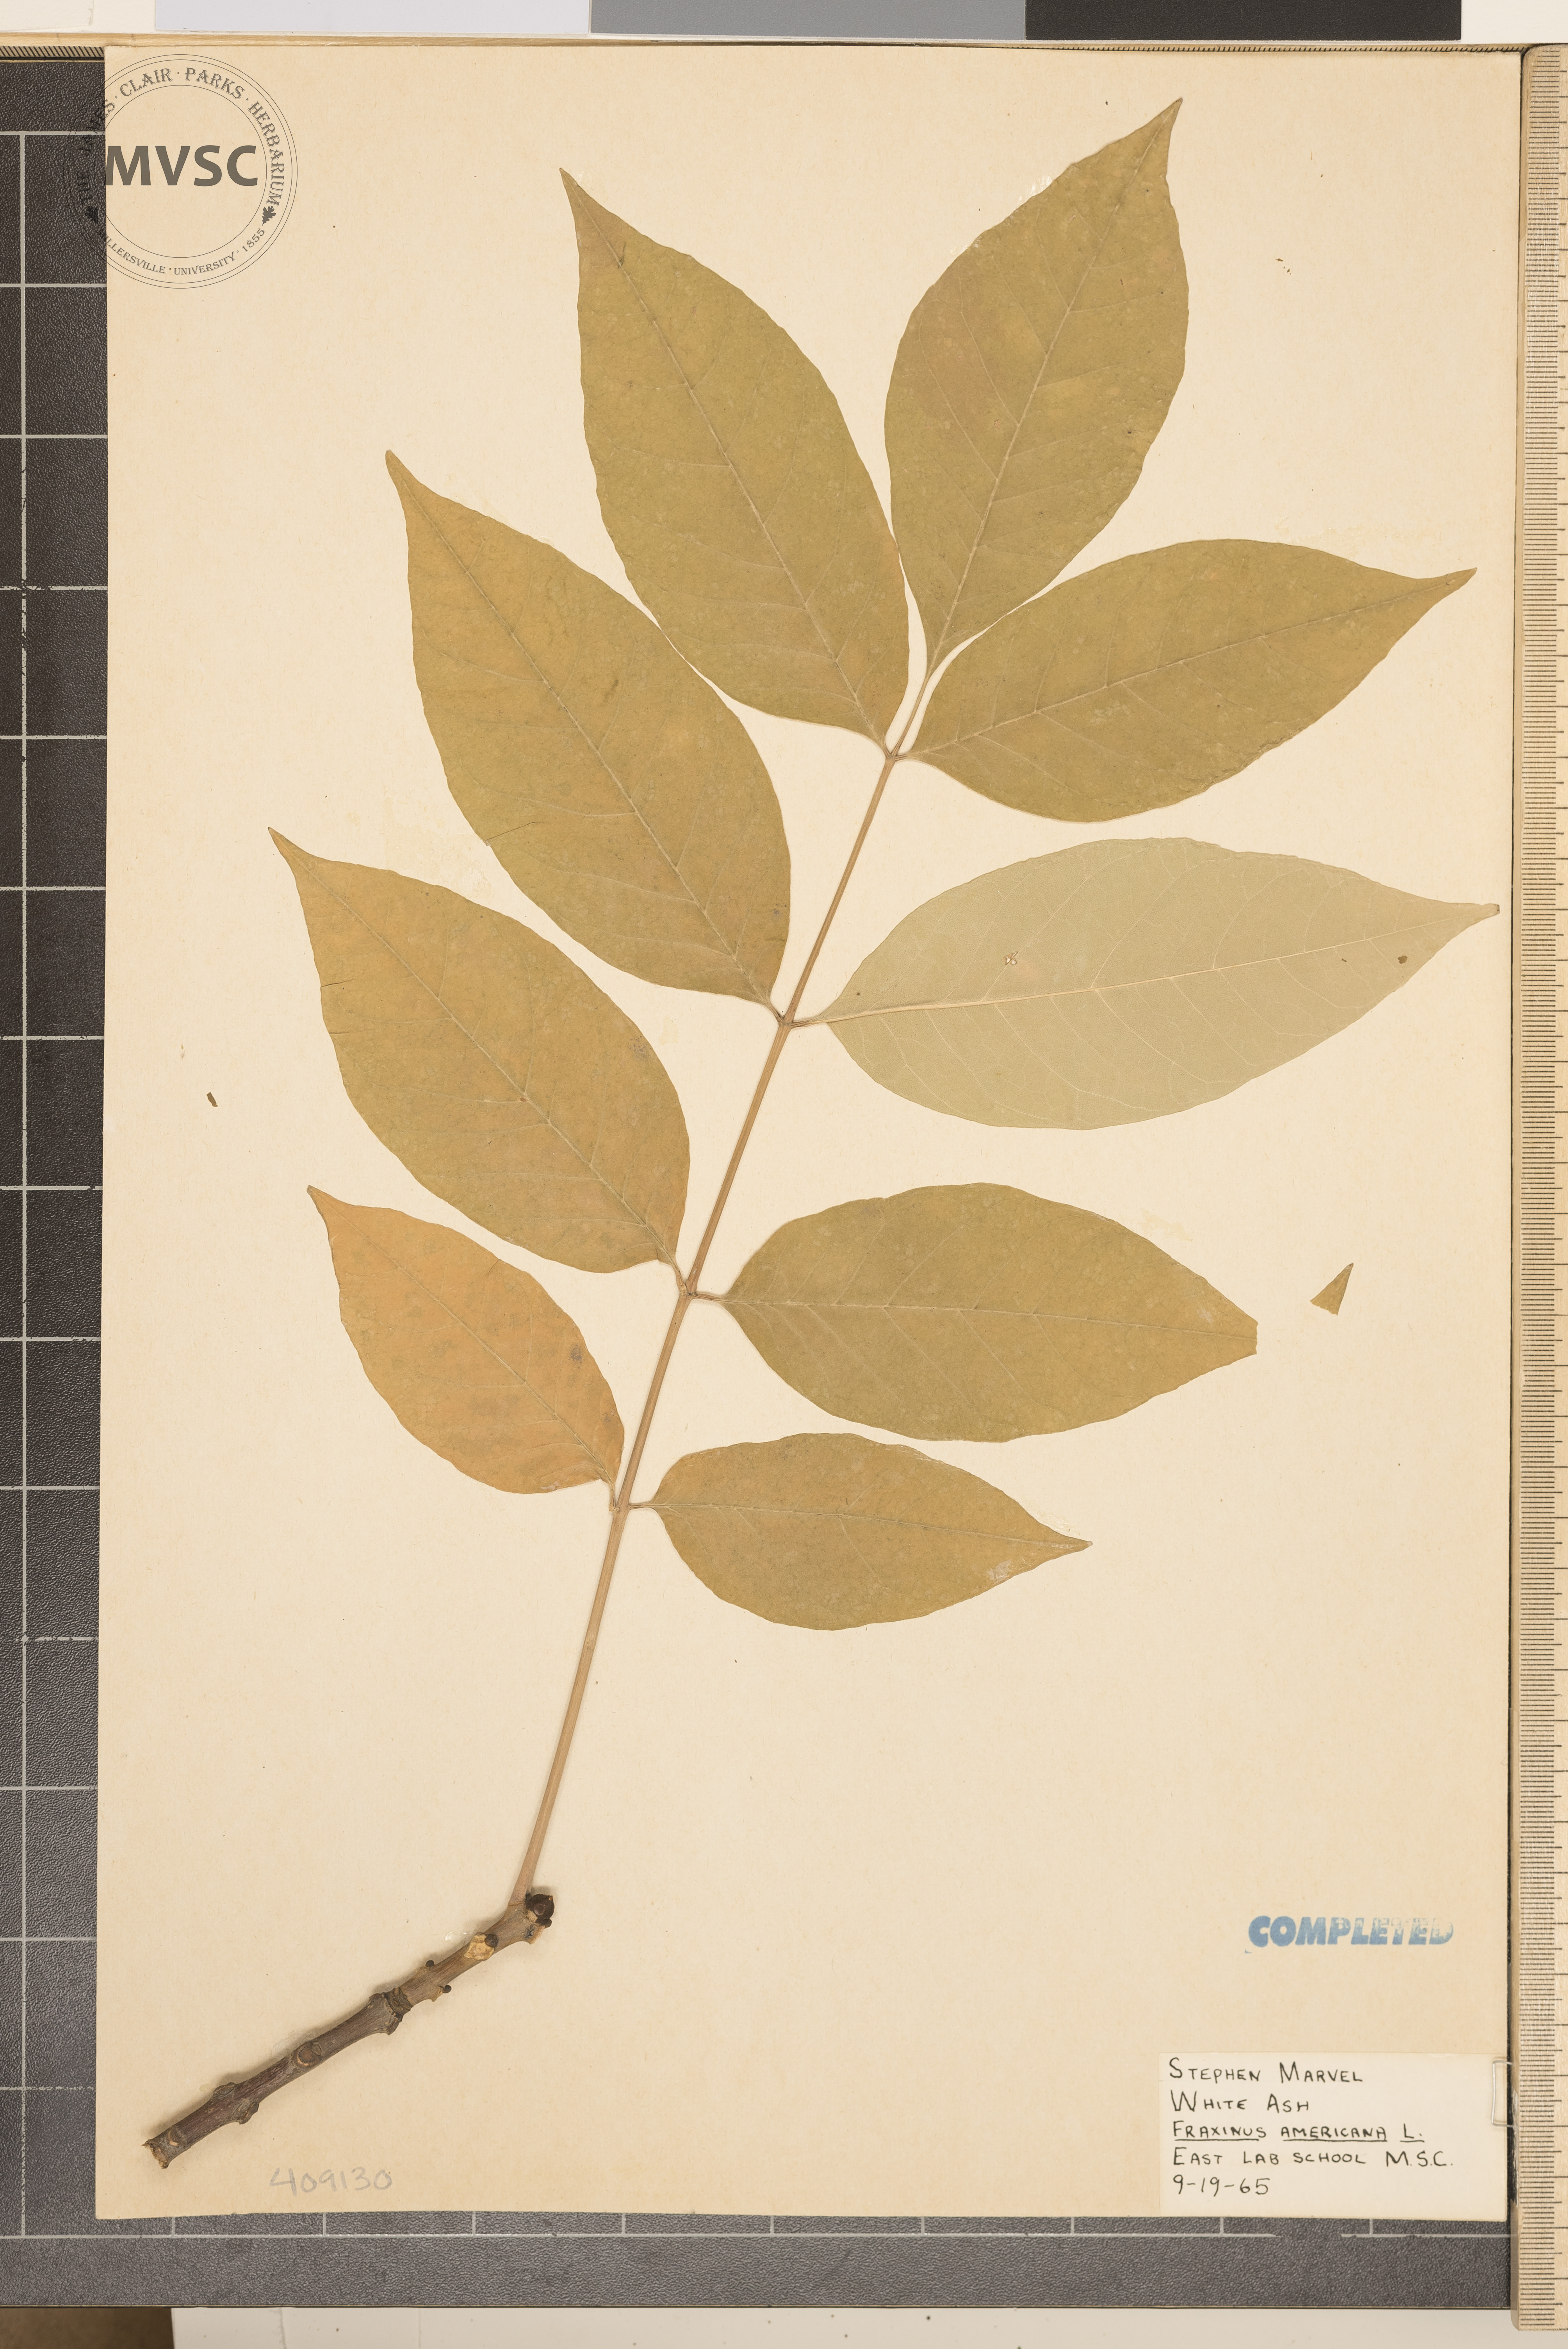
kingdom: Plantae
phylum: Tracheophyta
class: Magnoliopsida
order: Lamiales
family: Oleaceae
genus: Fraxinus
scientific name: Fraxinus americana
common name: White ash
